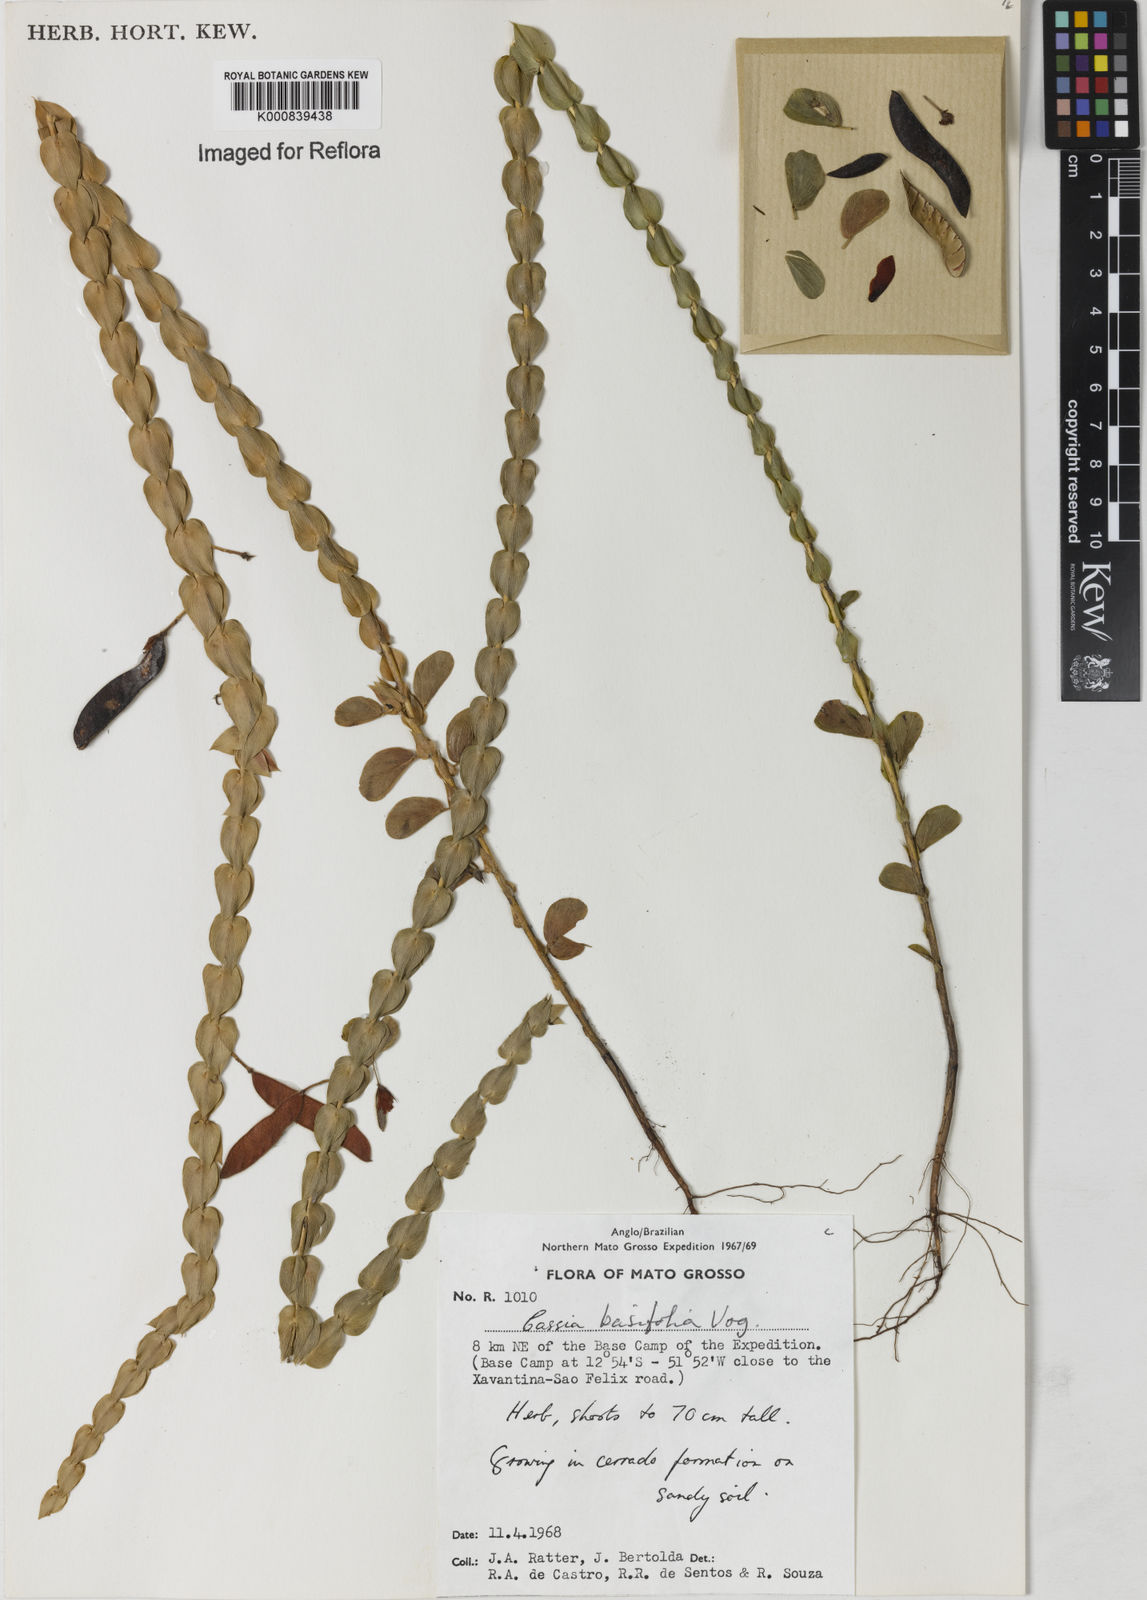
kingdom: Plantae
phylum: Tracheophyta
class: Magnoliopsida
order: Fabales
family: Fabaceae
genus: Chamaecrista
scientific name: Chamaecrista basifolia
